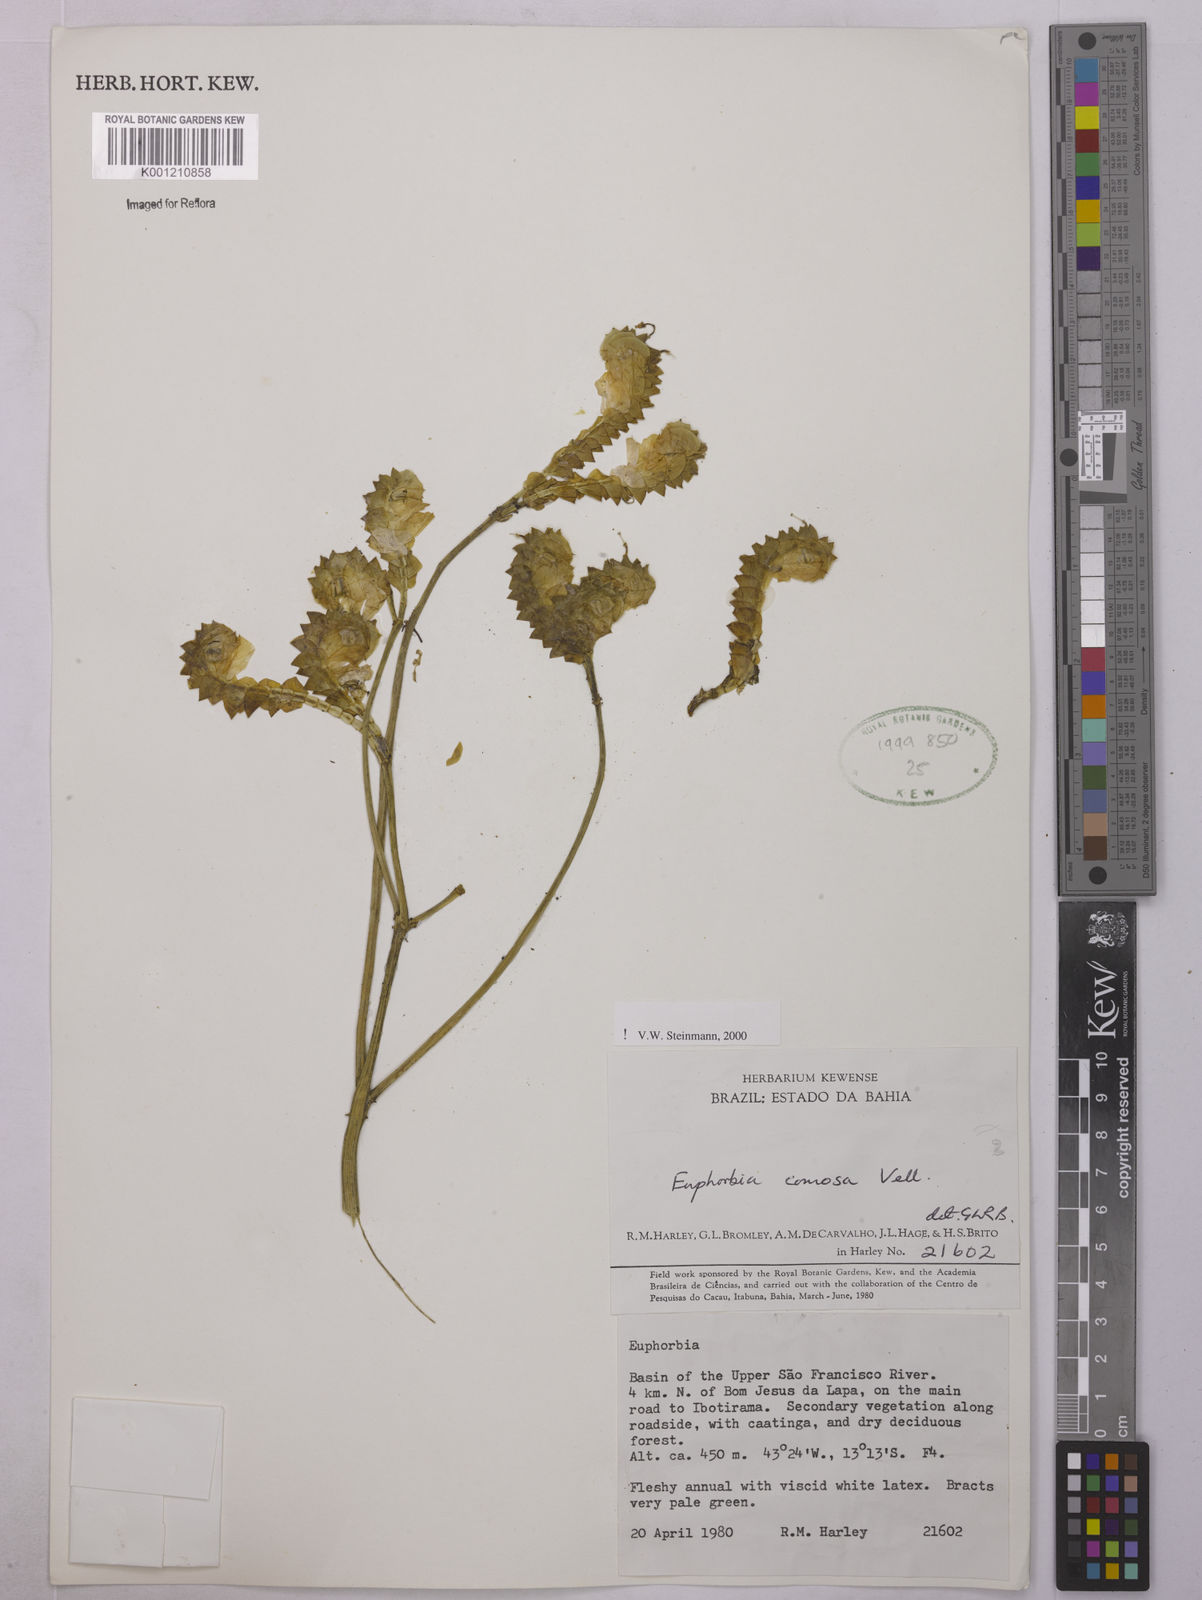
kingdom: Plantae
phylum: Tracheophyta
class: Magnoliopsida
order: Malpighiales
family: Euphorbiaceae
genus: Euphorbia
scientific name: Euphorbia comosa
